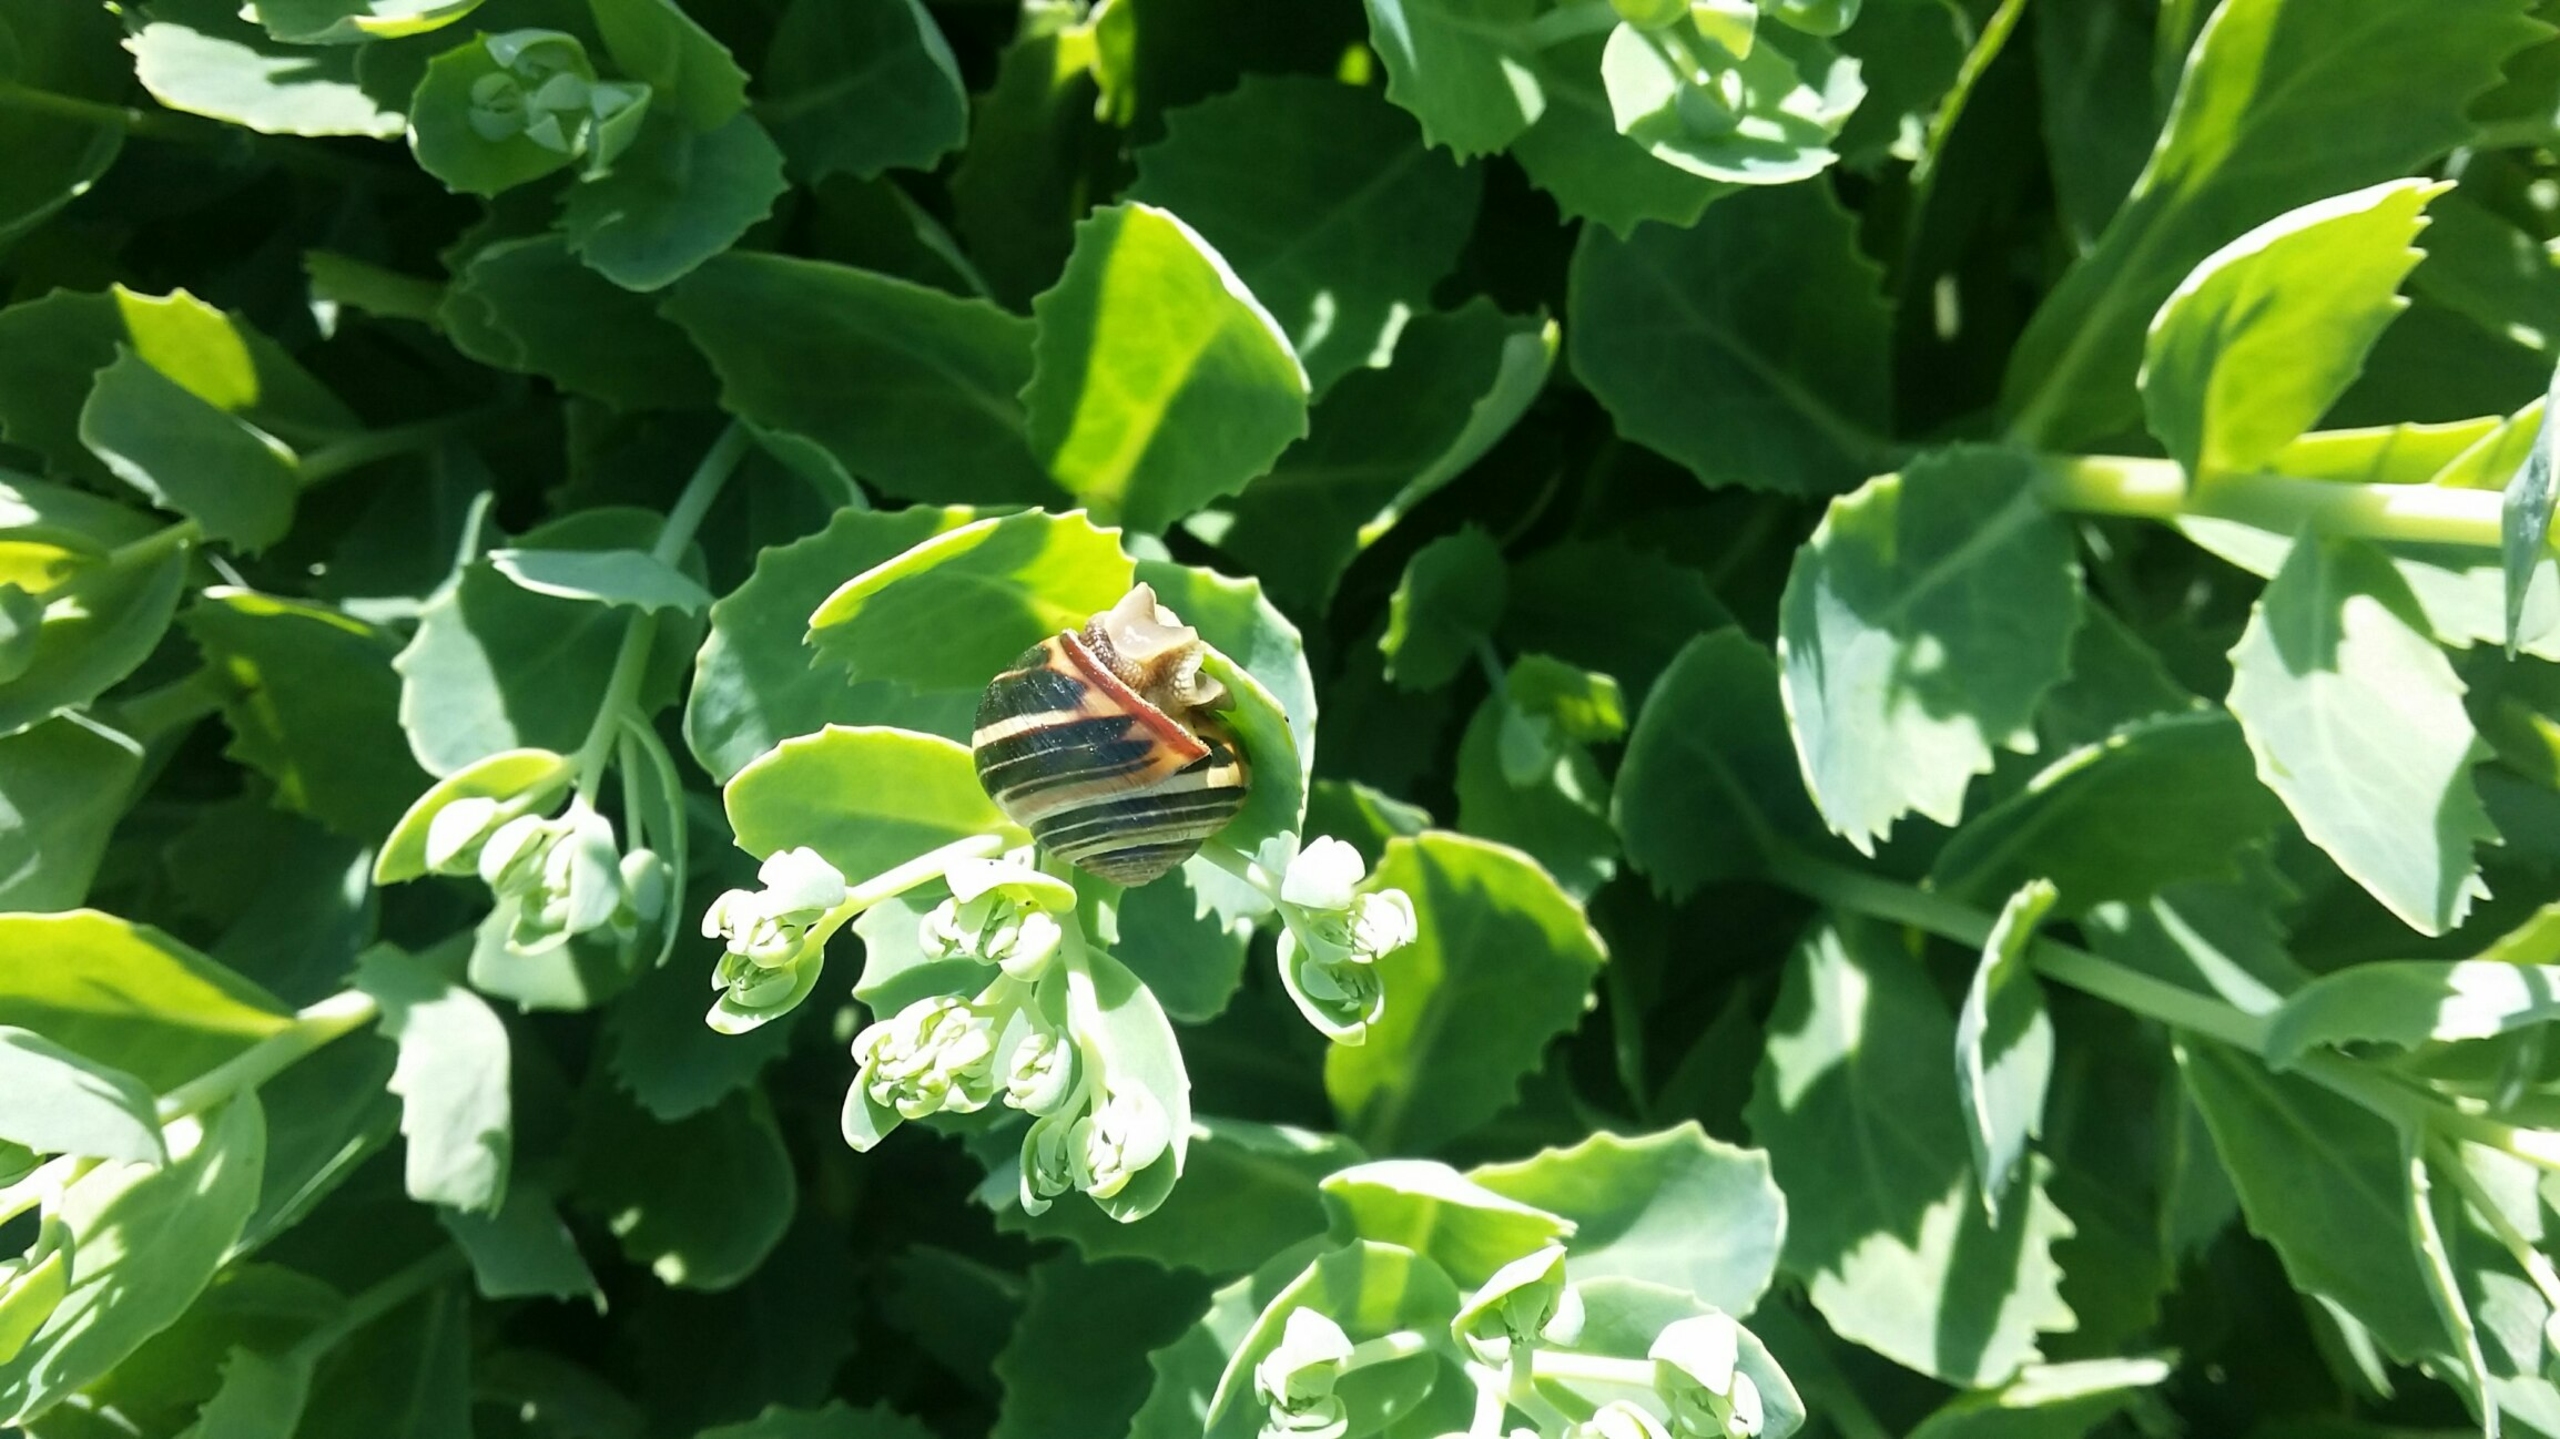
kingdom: Animalia
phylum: Mollusca
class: Gastropoda
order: Stylommatophora
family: Helicidae
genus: Cepaea
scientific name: Cepaea nemoralis
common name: Lundsnegl
